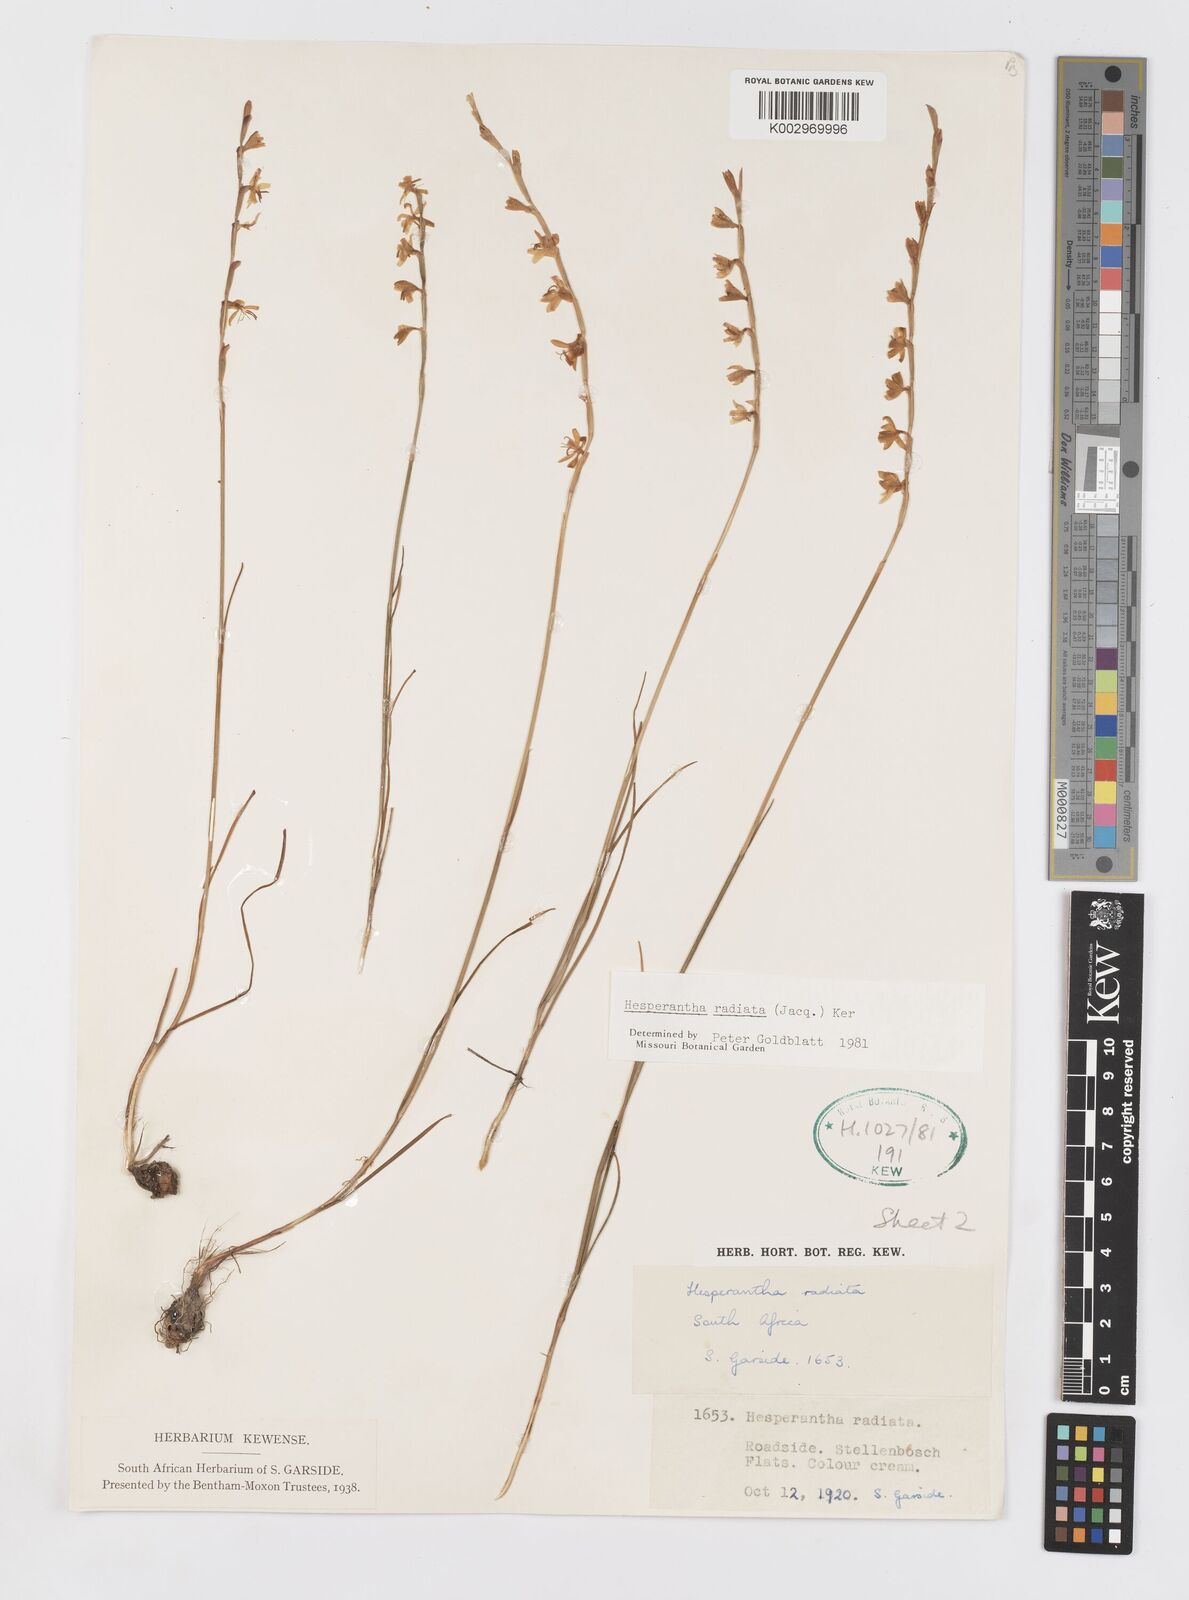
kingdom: Plantae
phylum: Tracheophyta
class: Liliopsida
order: Asparagales
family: Iridaceae
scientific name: Iridaceae
